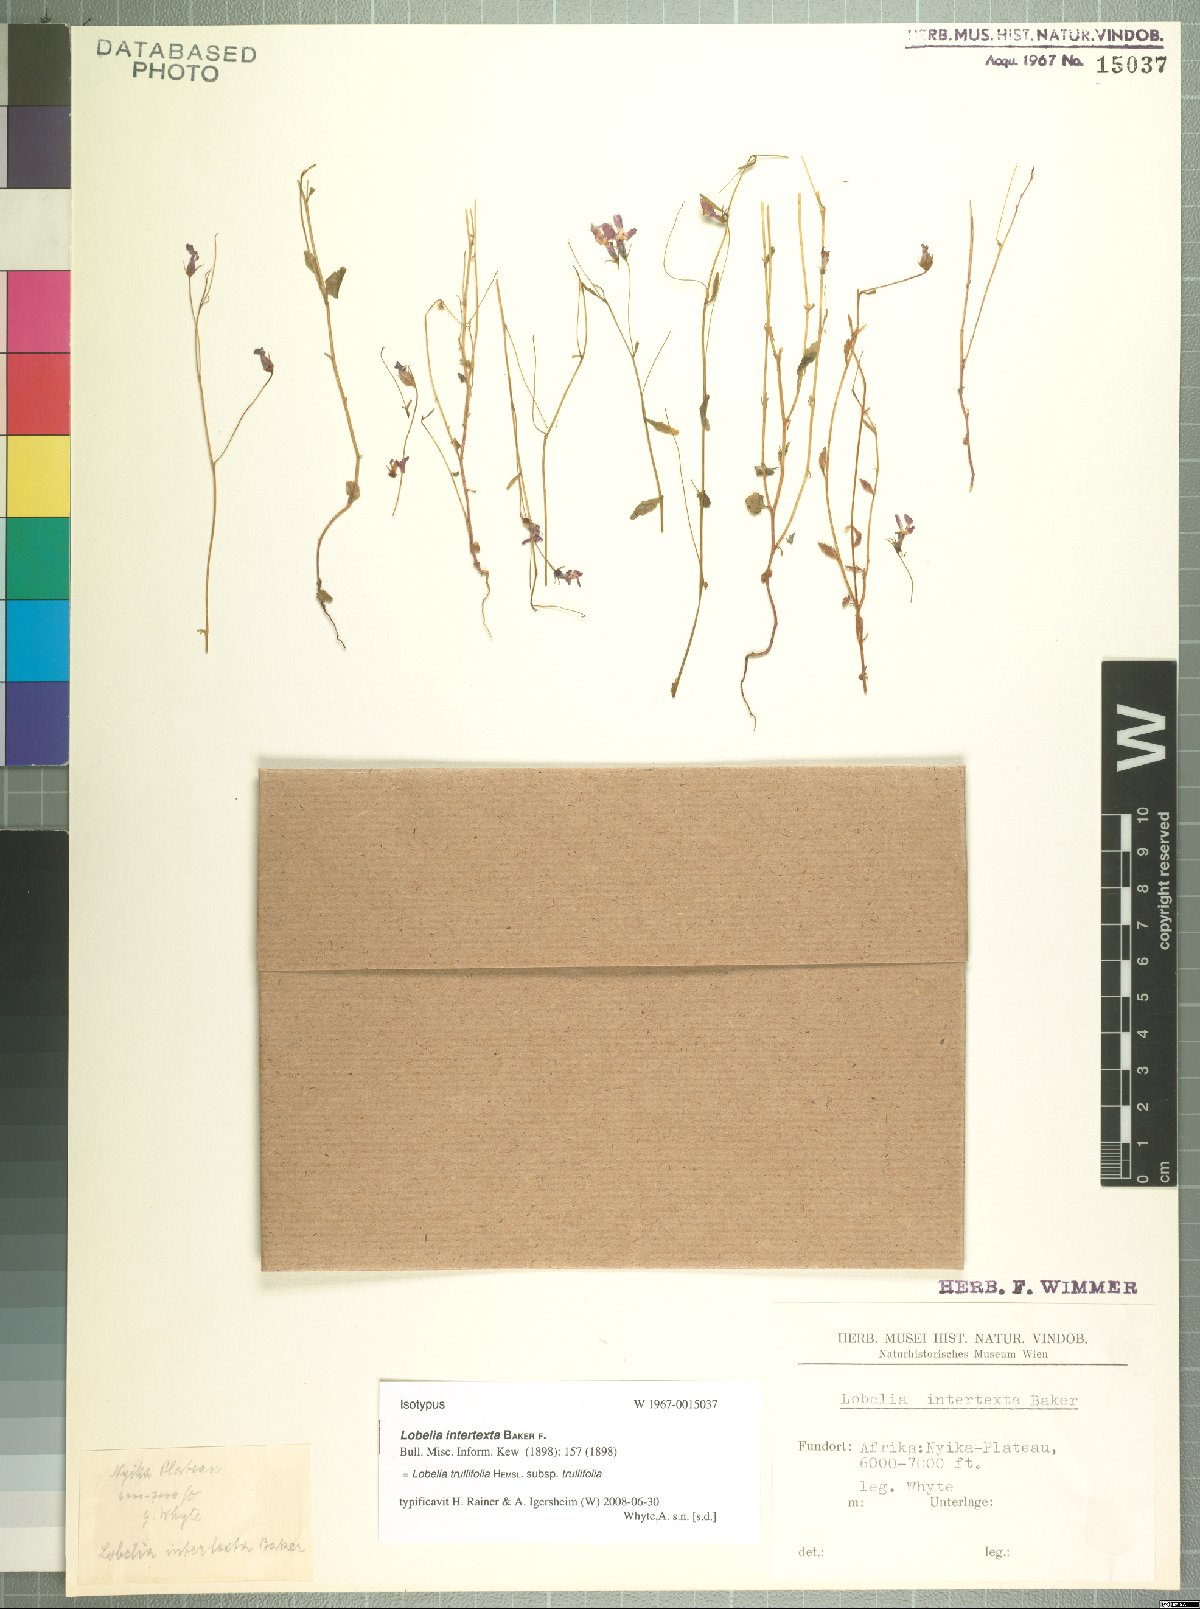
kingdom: Plantae
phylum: Tracheophyta
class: Magnoliopsida
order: Asterales
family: Campanulaceae
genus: Lobelia
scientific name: Lobelia trullifolia
